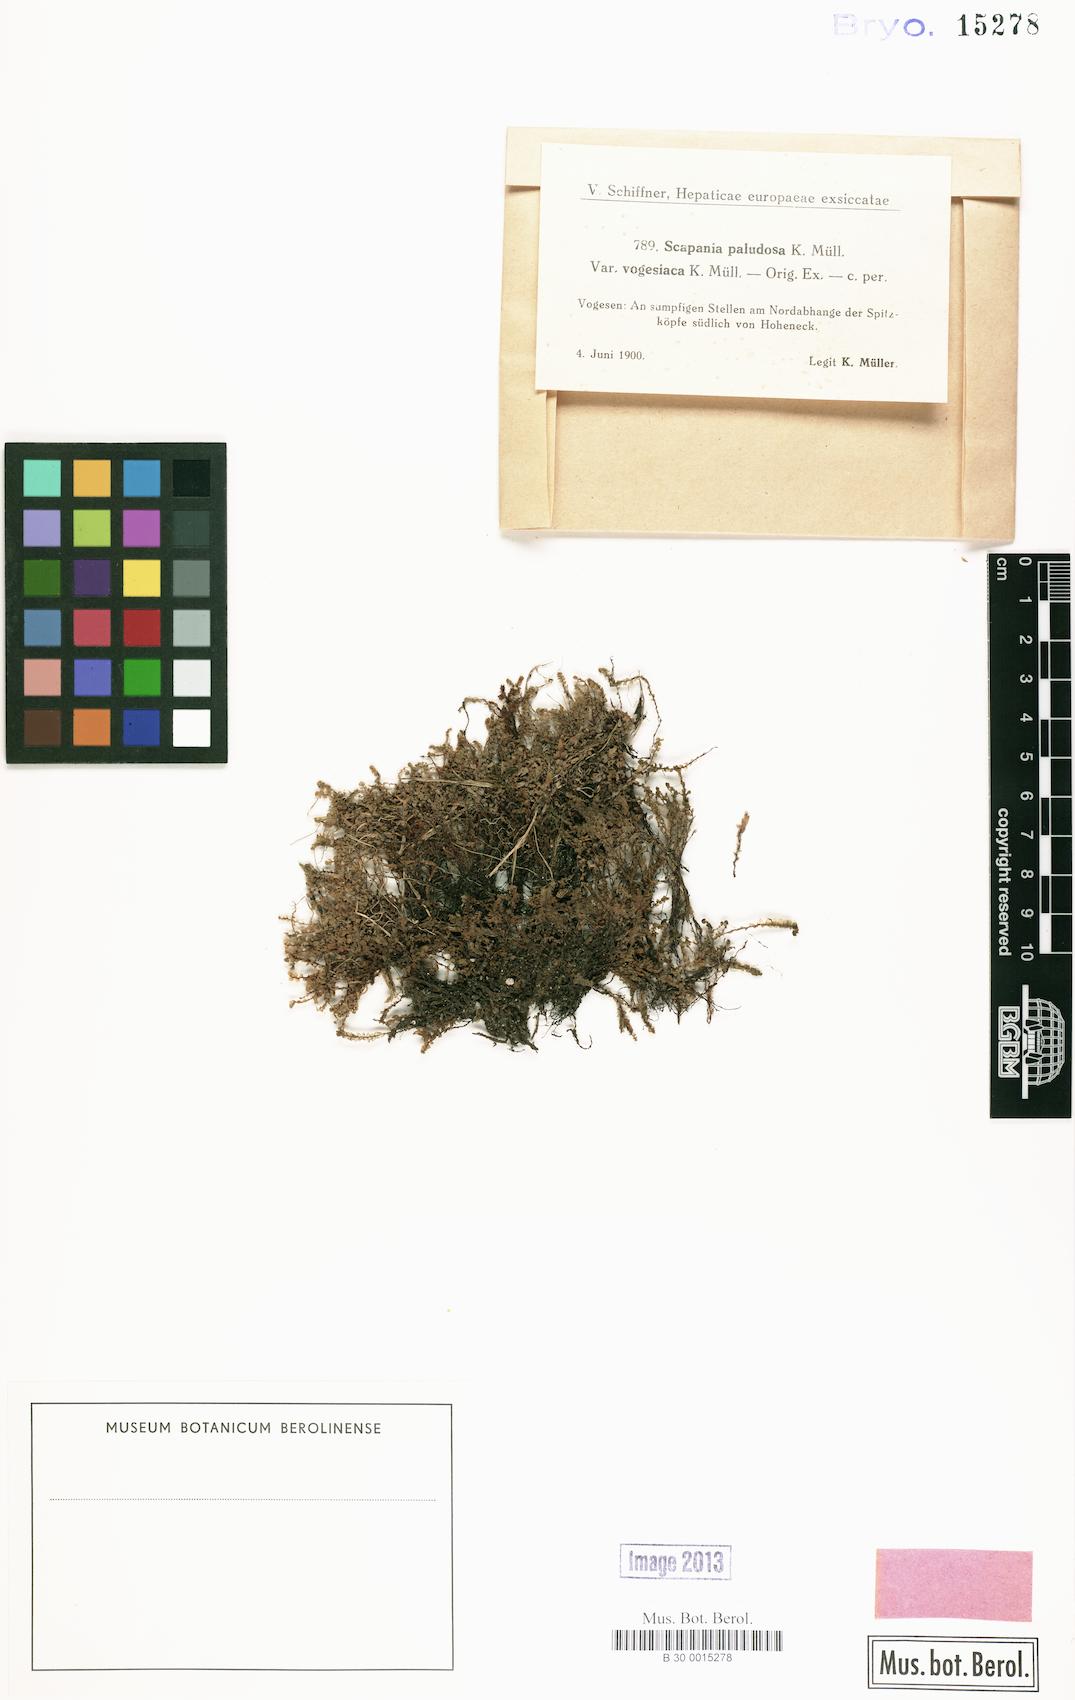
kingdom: Plantae
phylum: Marchantiophyta
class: Jungermanniopsida
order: Jungermanniales
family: Scapaniaceae
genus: Scapania
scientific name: Scapania paludosa
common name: Floppy earwort
